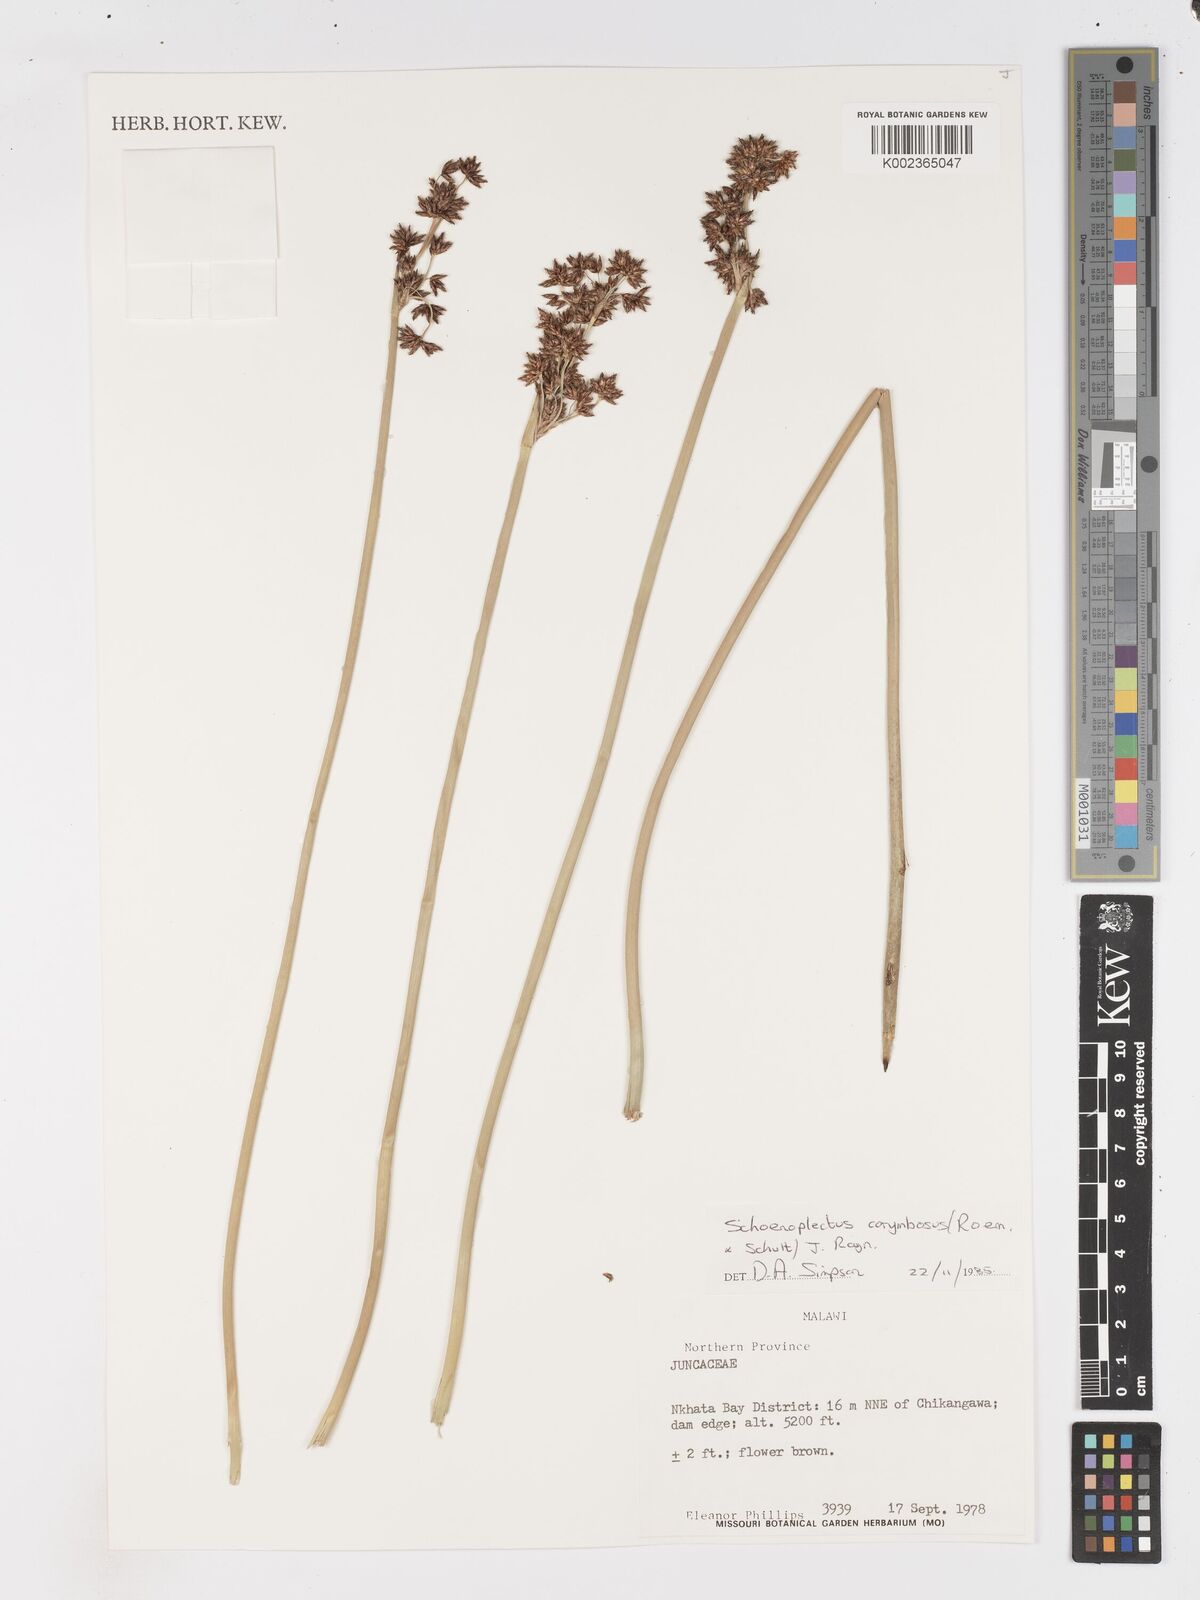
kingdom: Plantae
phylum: Tracheophyta
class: Liliopsida
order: Poales
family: Cyperaceae
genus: Schoenoplectus
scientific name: Schoenoplectus
